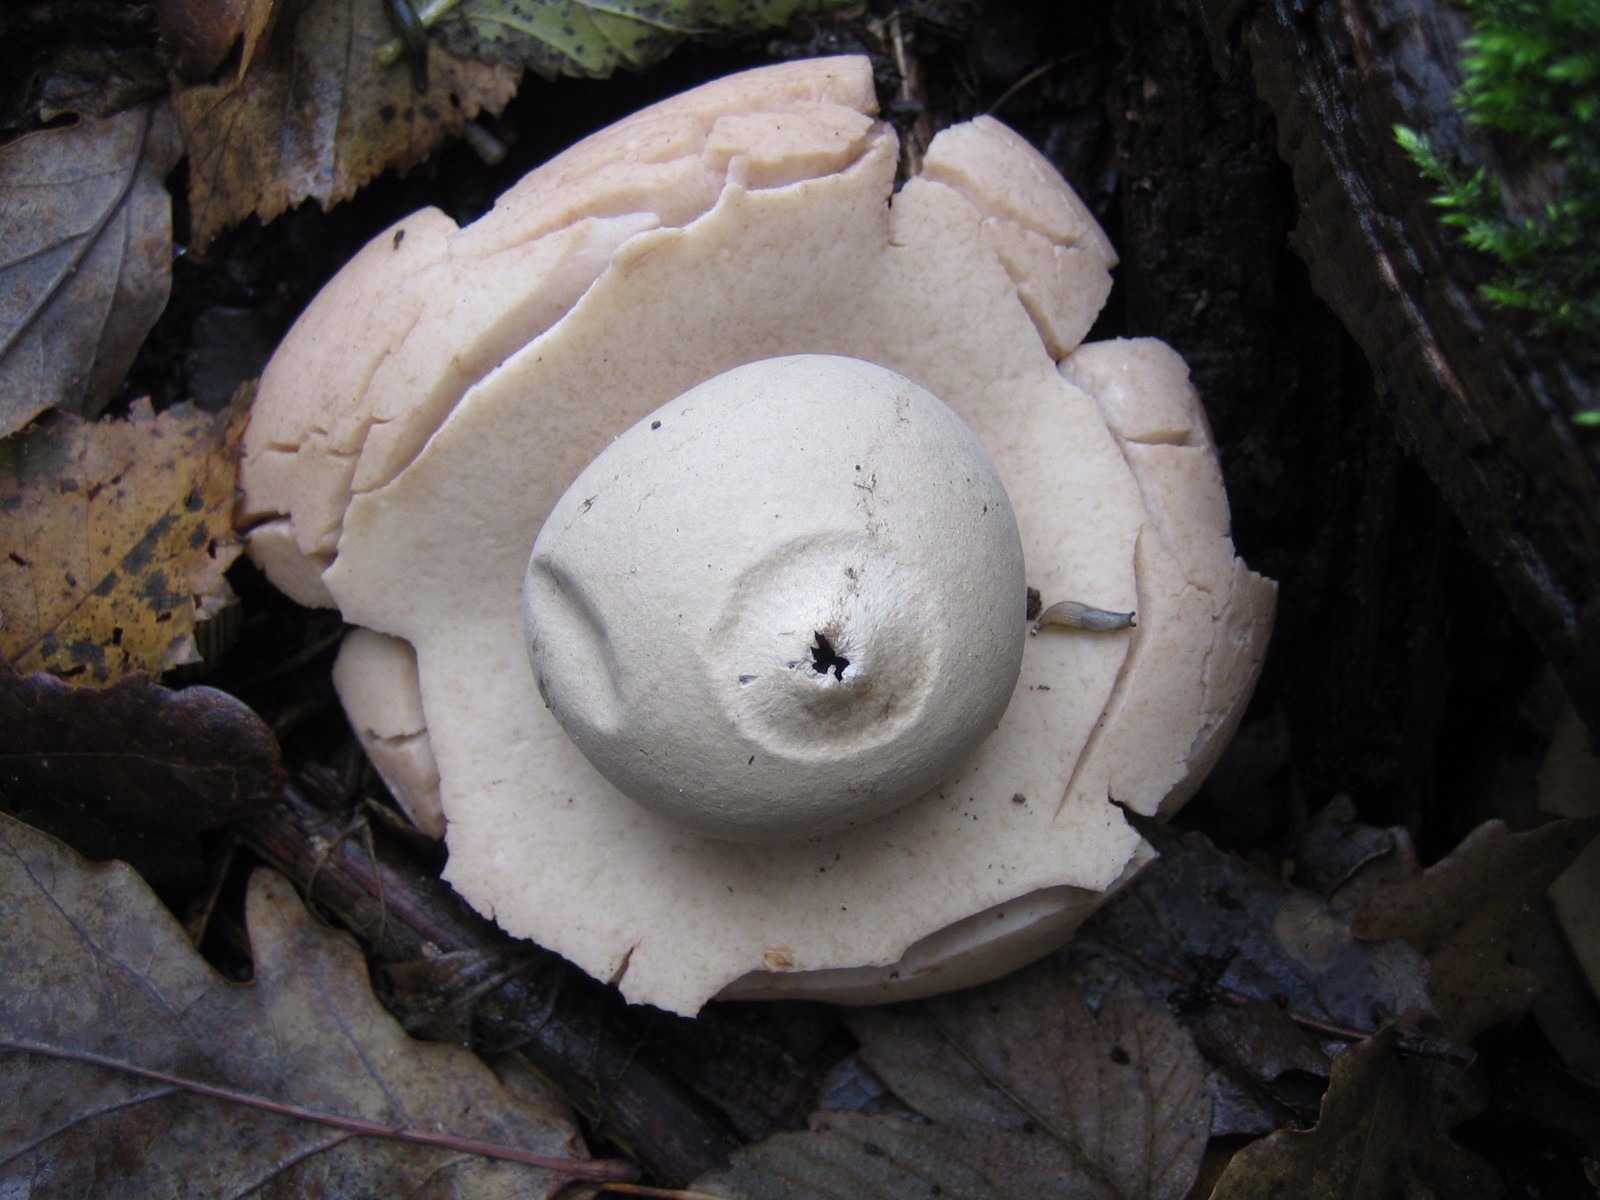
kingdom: Fungi
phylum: Basidiomycota
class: Agaricomycetes
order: Geastrales
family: Geastraceae
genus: Geastrum
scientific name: Geastrum michelianum
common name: kødet stjernebold
